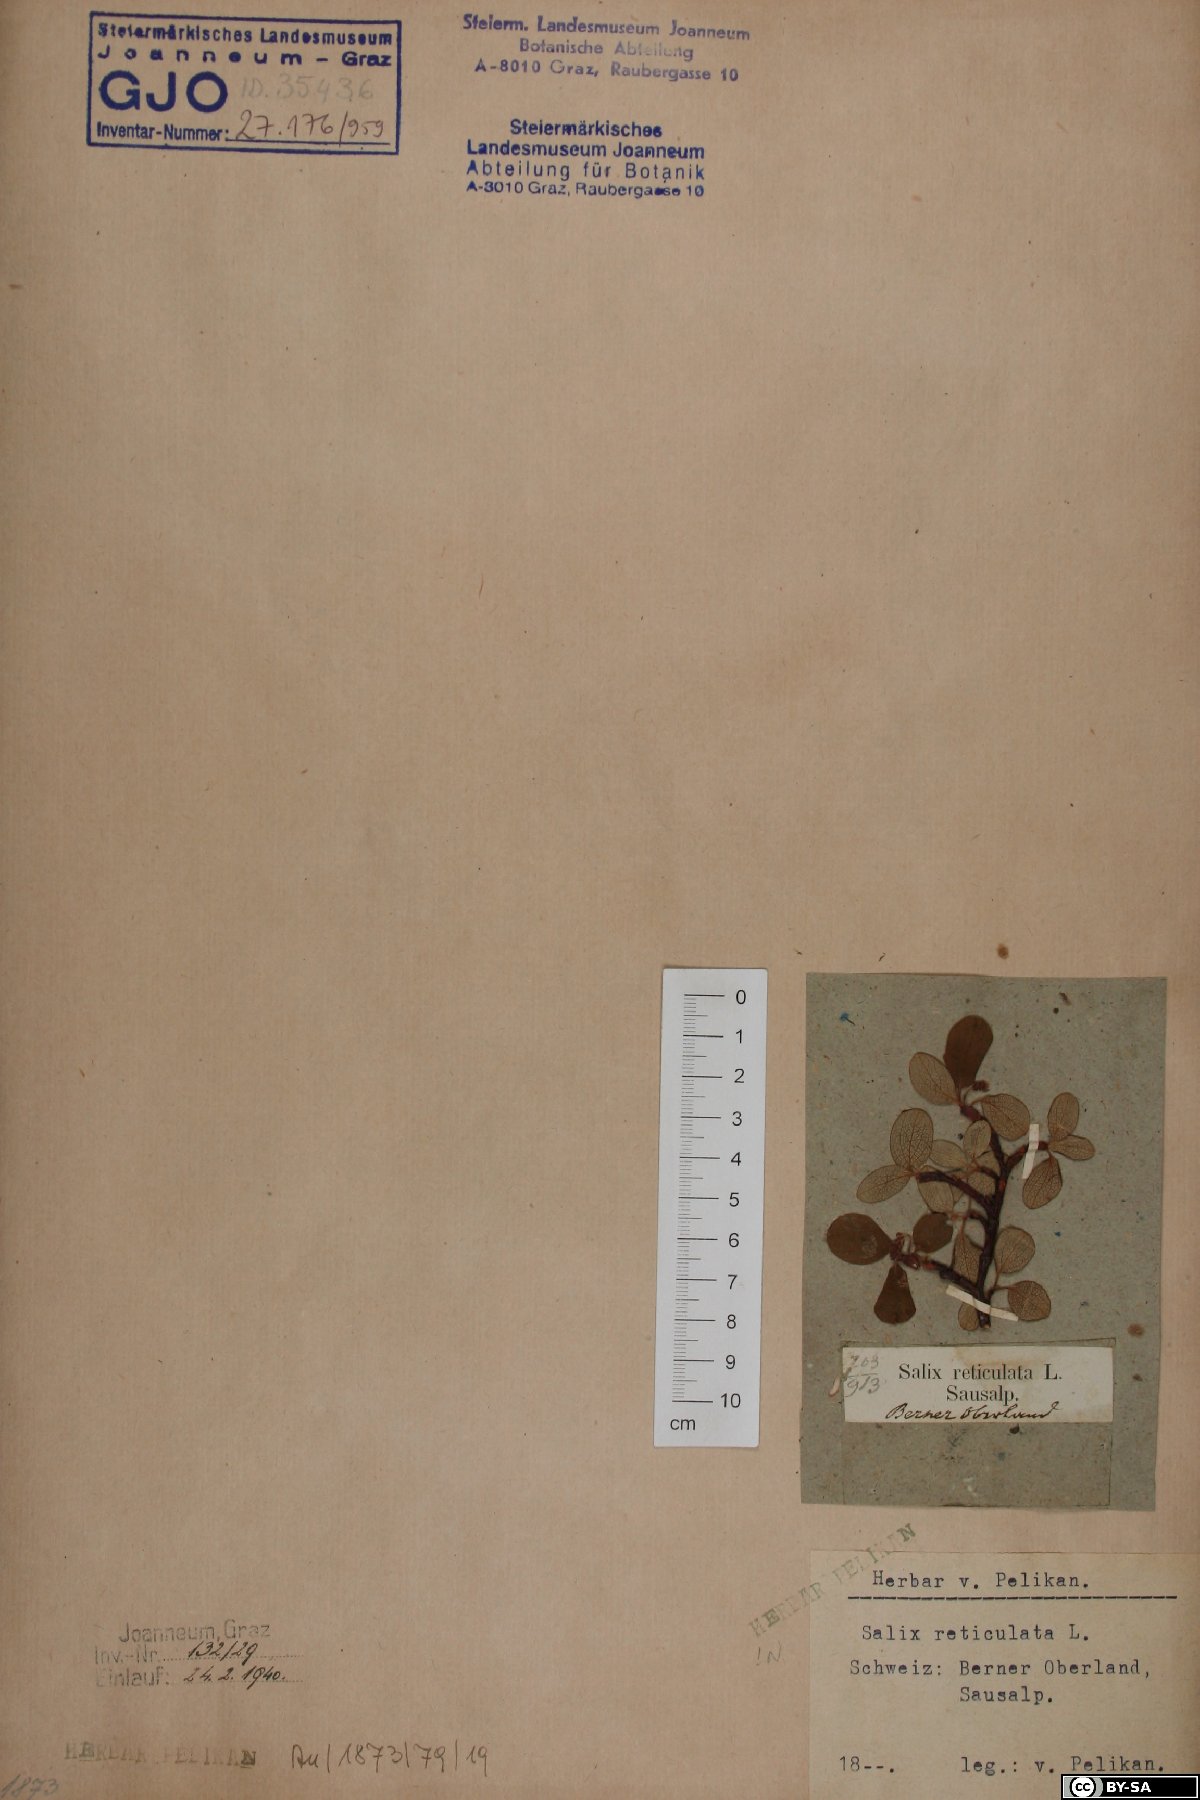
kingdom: Plantae
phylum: Tracheophyta
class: Magnoliopsida
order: Malpighiales
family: Salicaceae
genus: Salix
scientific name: Salix reticulata
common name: Net-leaved willow
